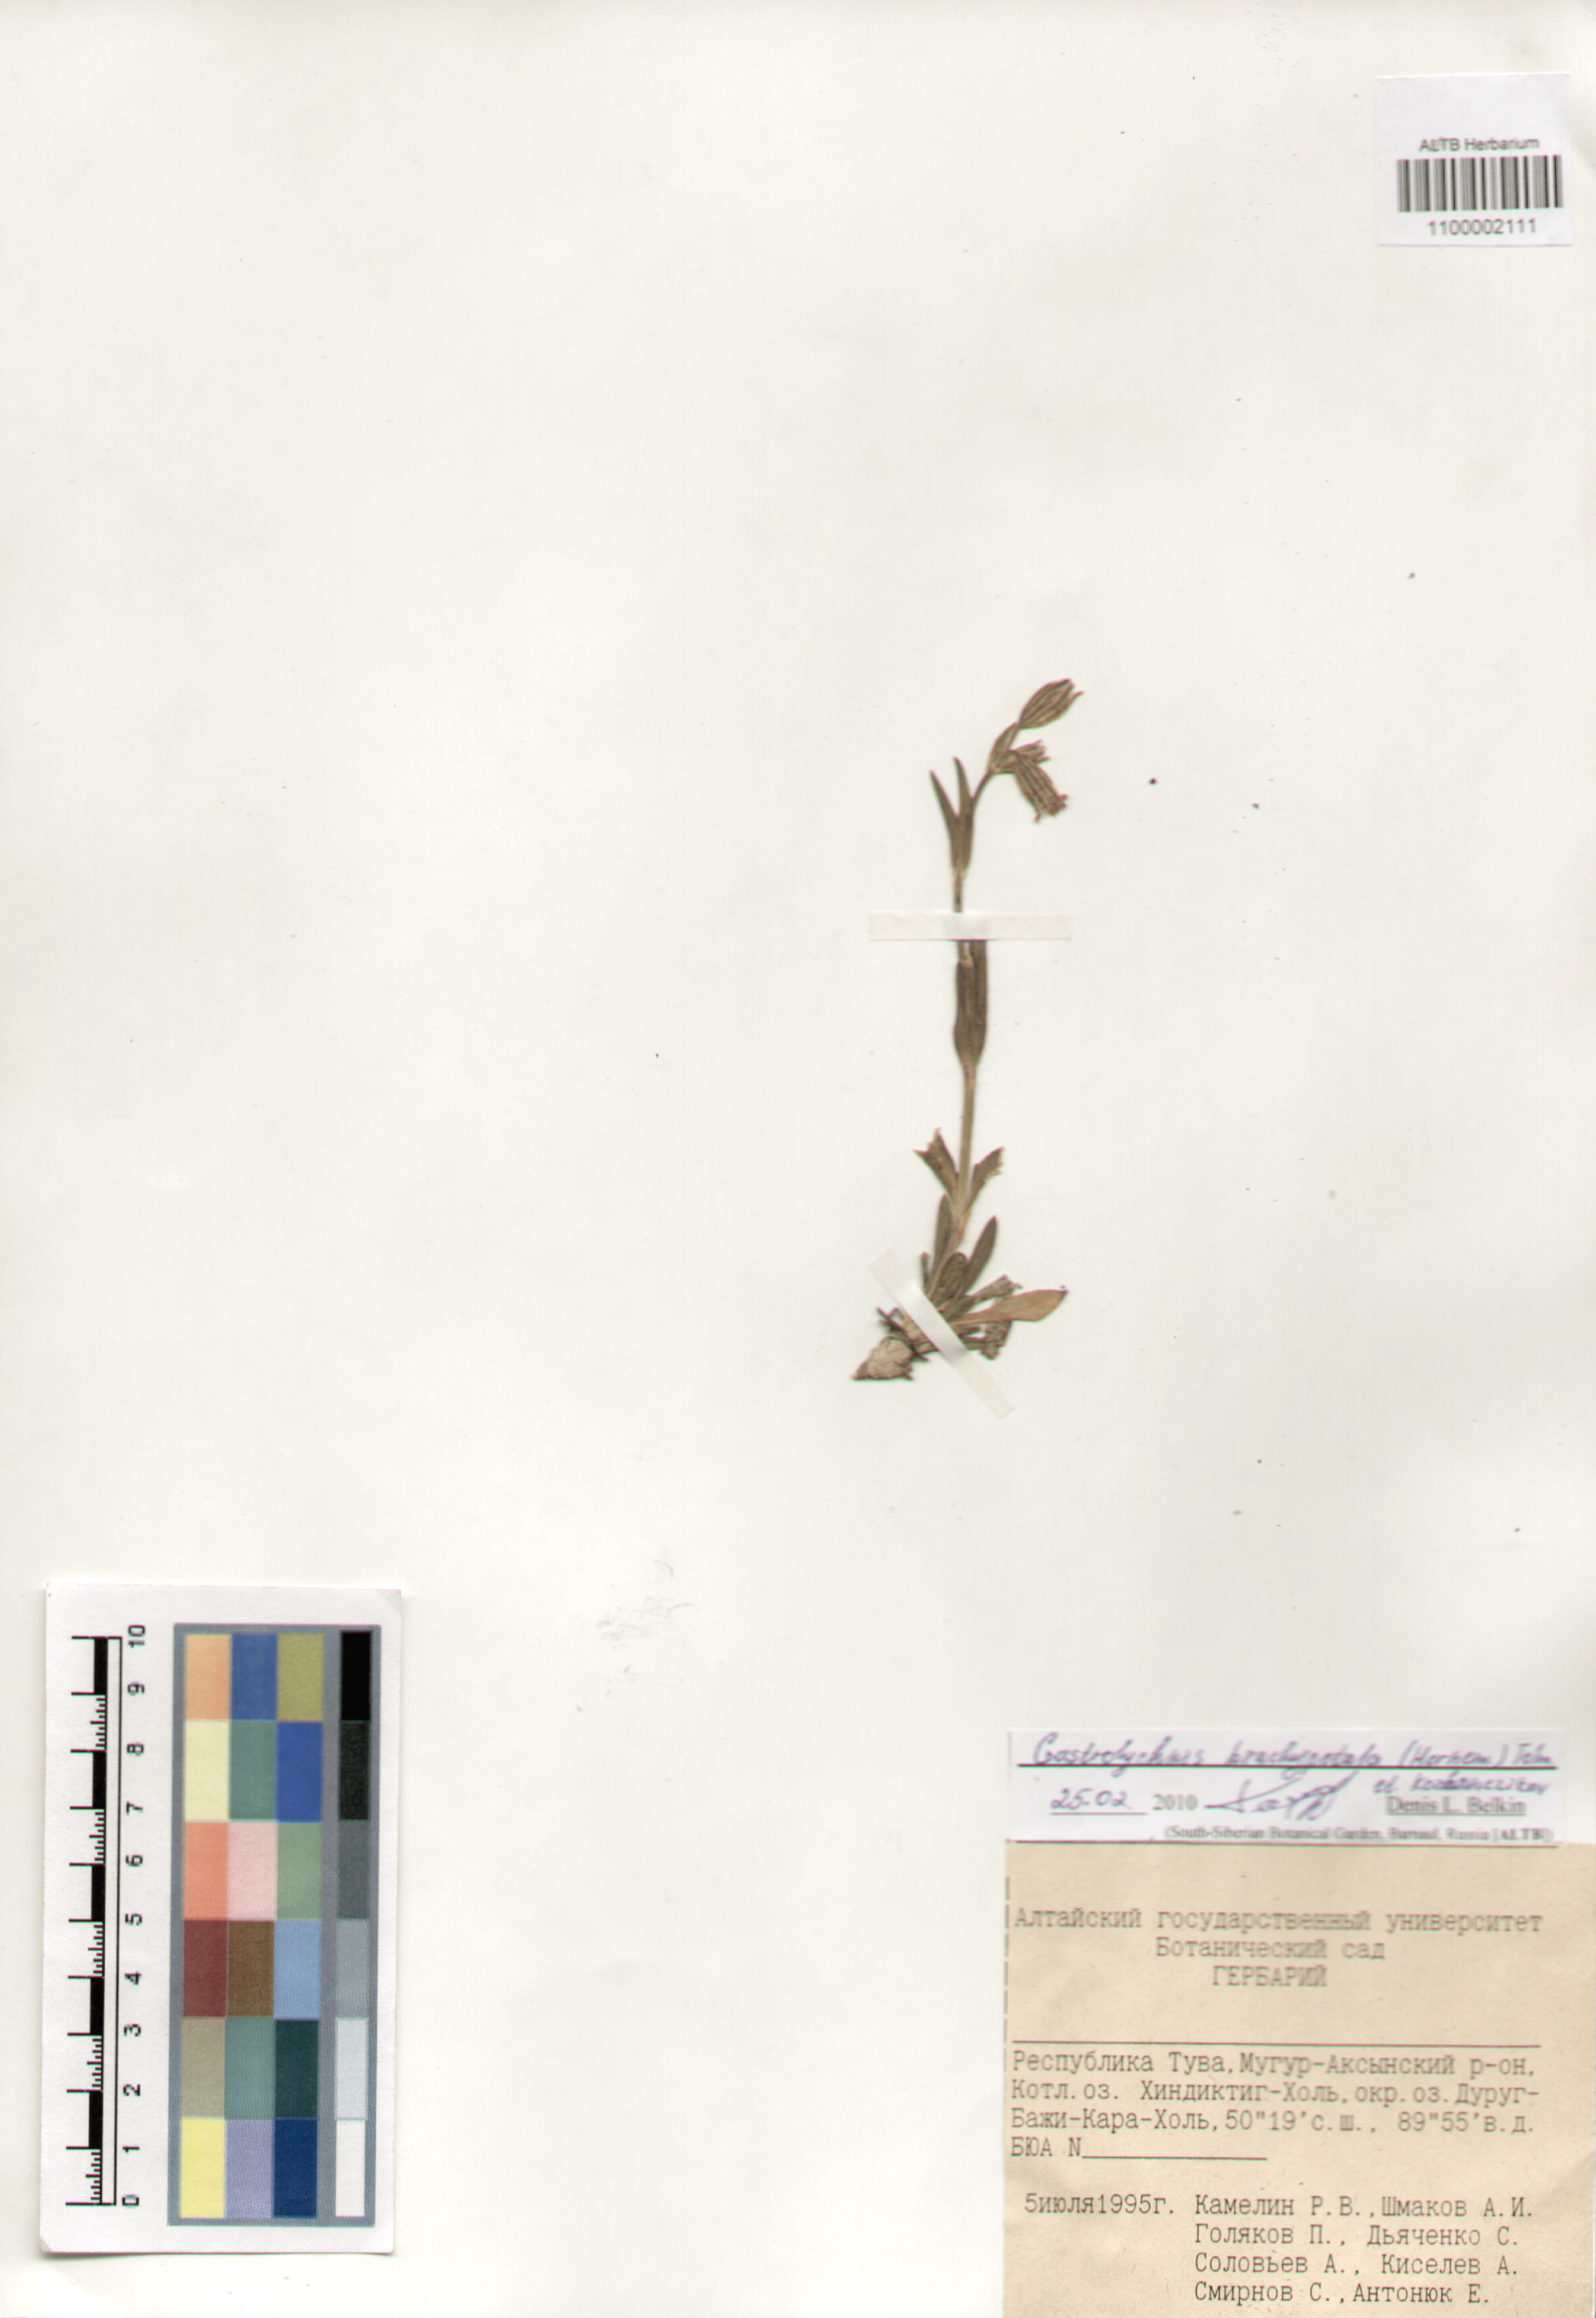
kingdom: Plantae
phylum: Tracheophyta
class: Magnoliopsida
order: Caryophyllales
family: Caryophyllaceae
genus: Silene
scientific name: Silene songarica
